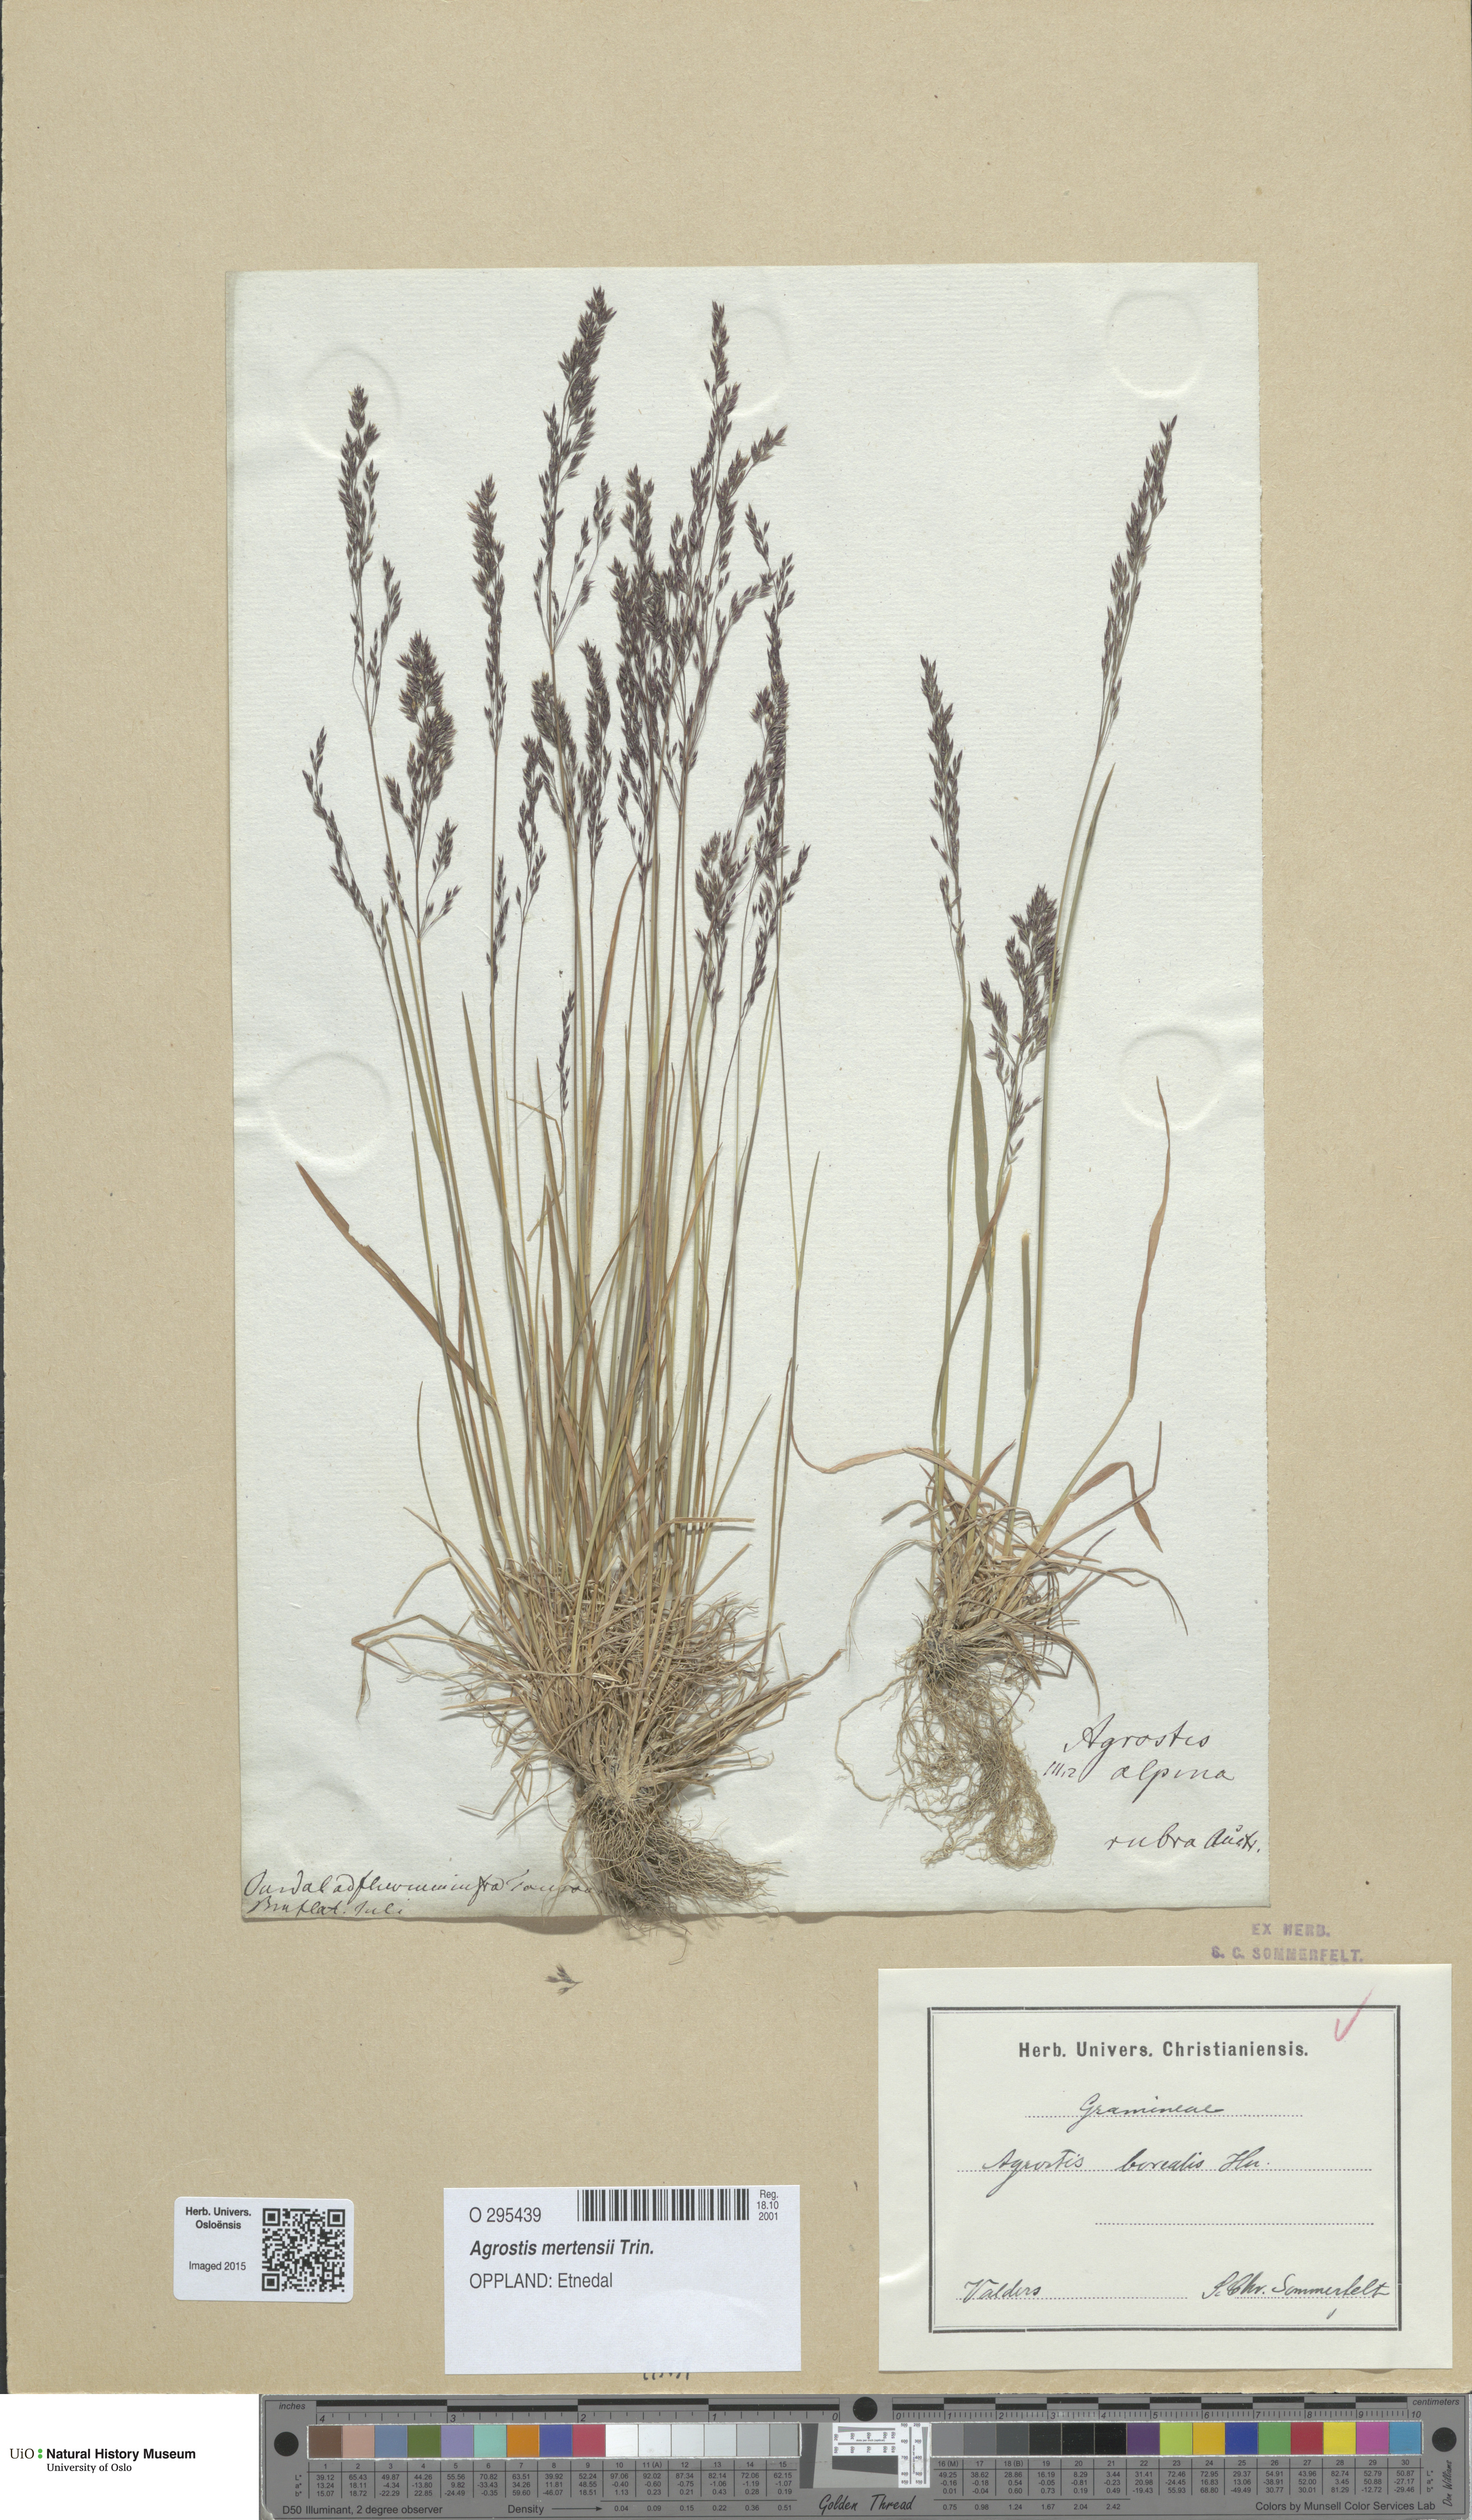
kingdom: Plantae
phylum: Tracheophyta
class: Liliopsida
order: Poales
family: Poaceae
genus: Agrostis
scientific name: Agrostis mertensii
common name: Northern bent
